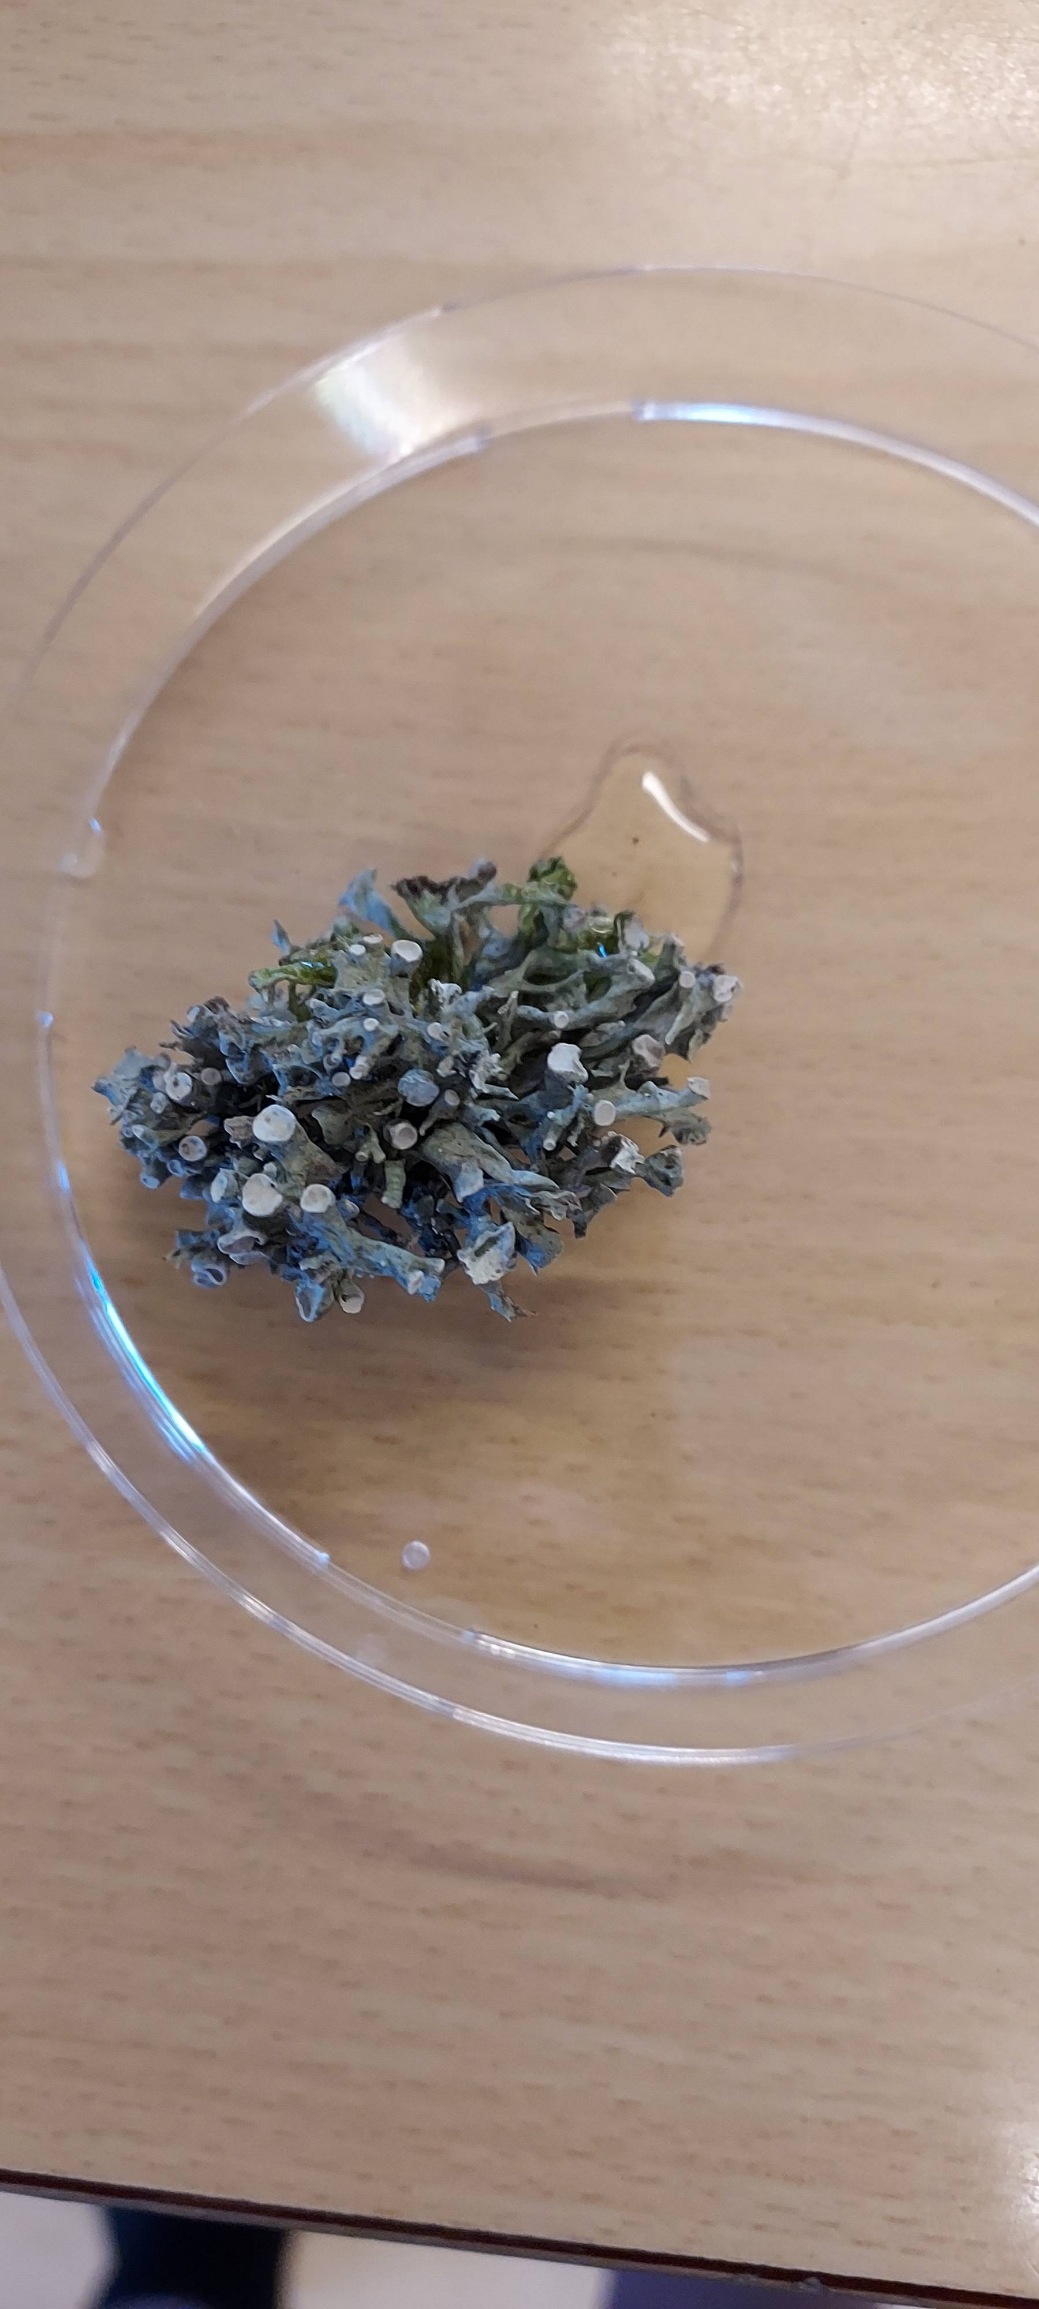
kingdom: Fungi
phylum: Ascomycota
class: Lecanoromycetes
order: Lecanorales
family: Ramalinaceae
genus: Ramalina
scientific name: Ramalina fastigiata
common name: Tue-grenlav
